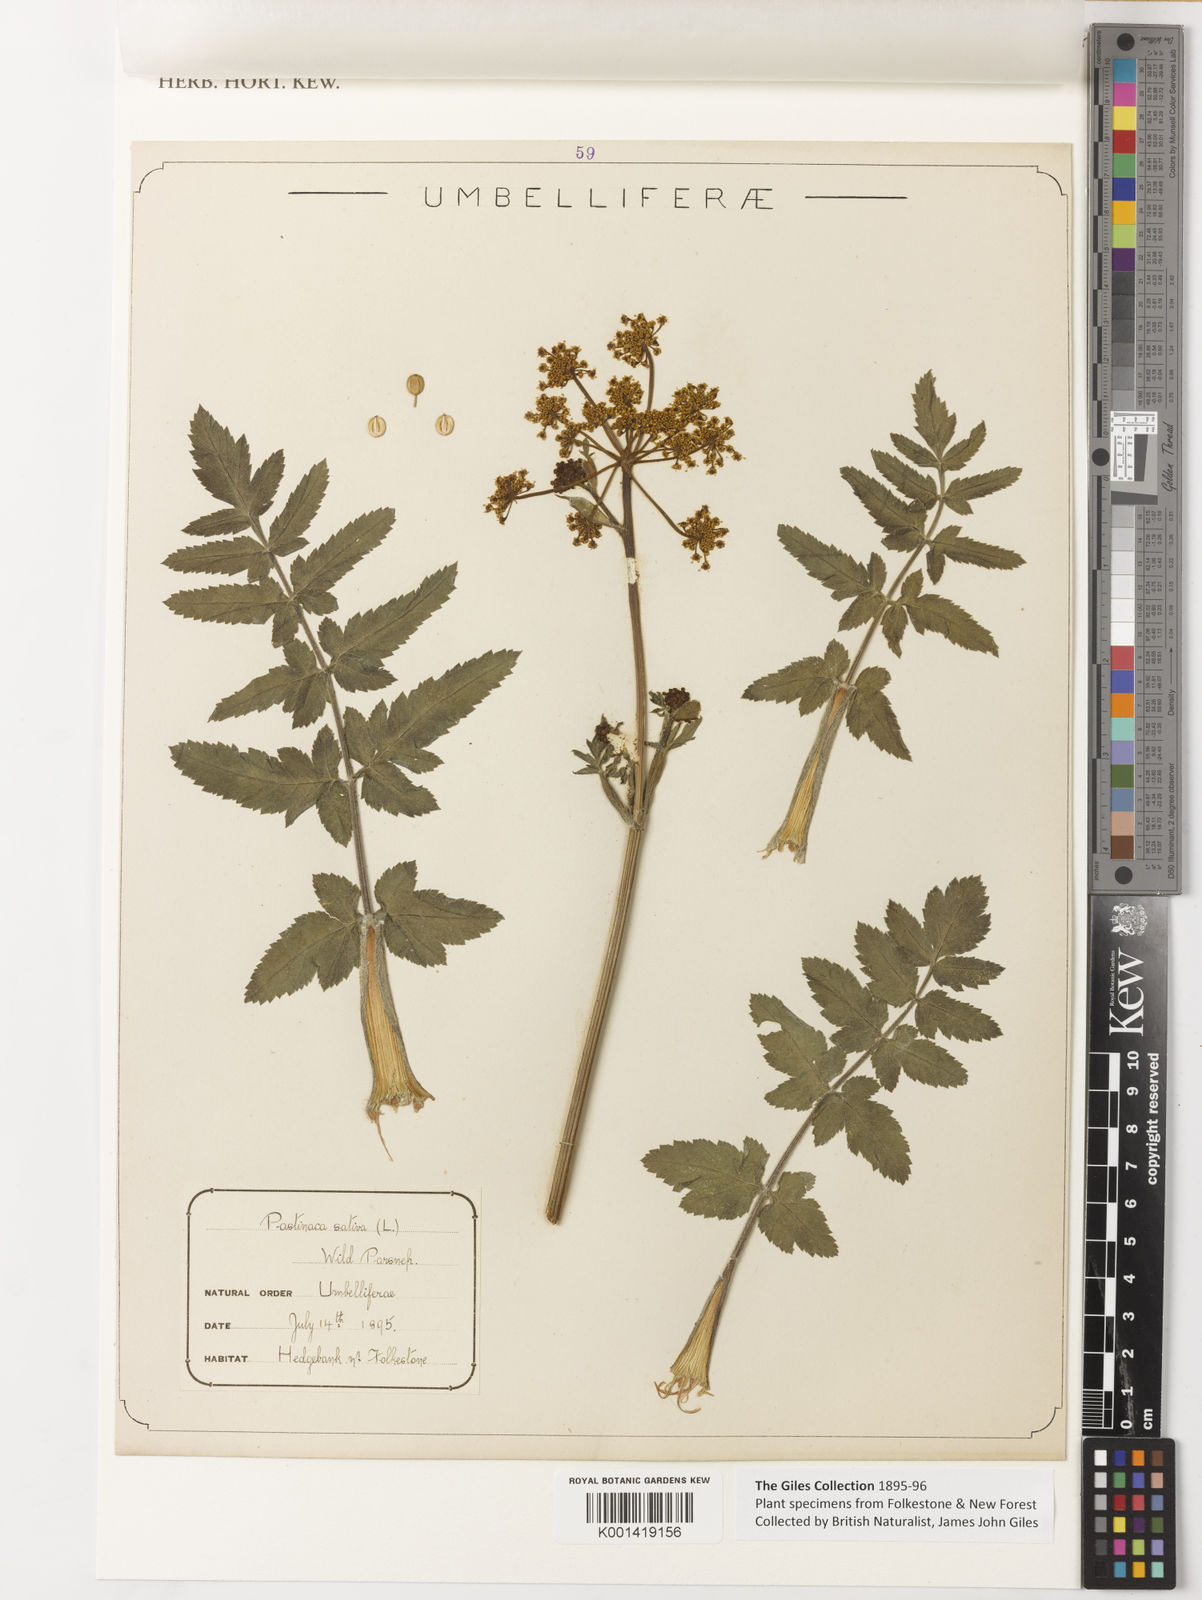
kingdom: Plantae
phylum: Tracheophyta
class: Magnoliopsida
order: Apiales
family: Apiaceae
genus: Pastinaca
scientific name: Pastinaca sativa
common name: Wild parsnip
